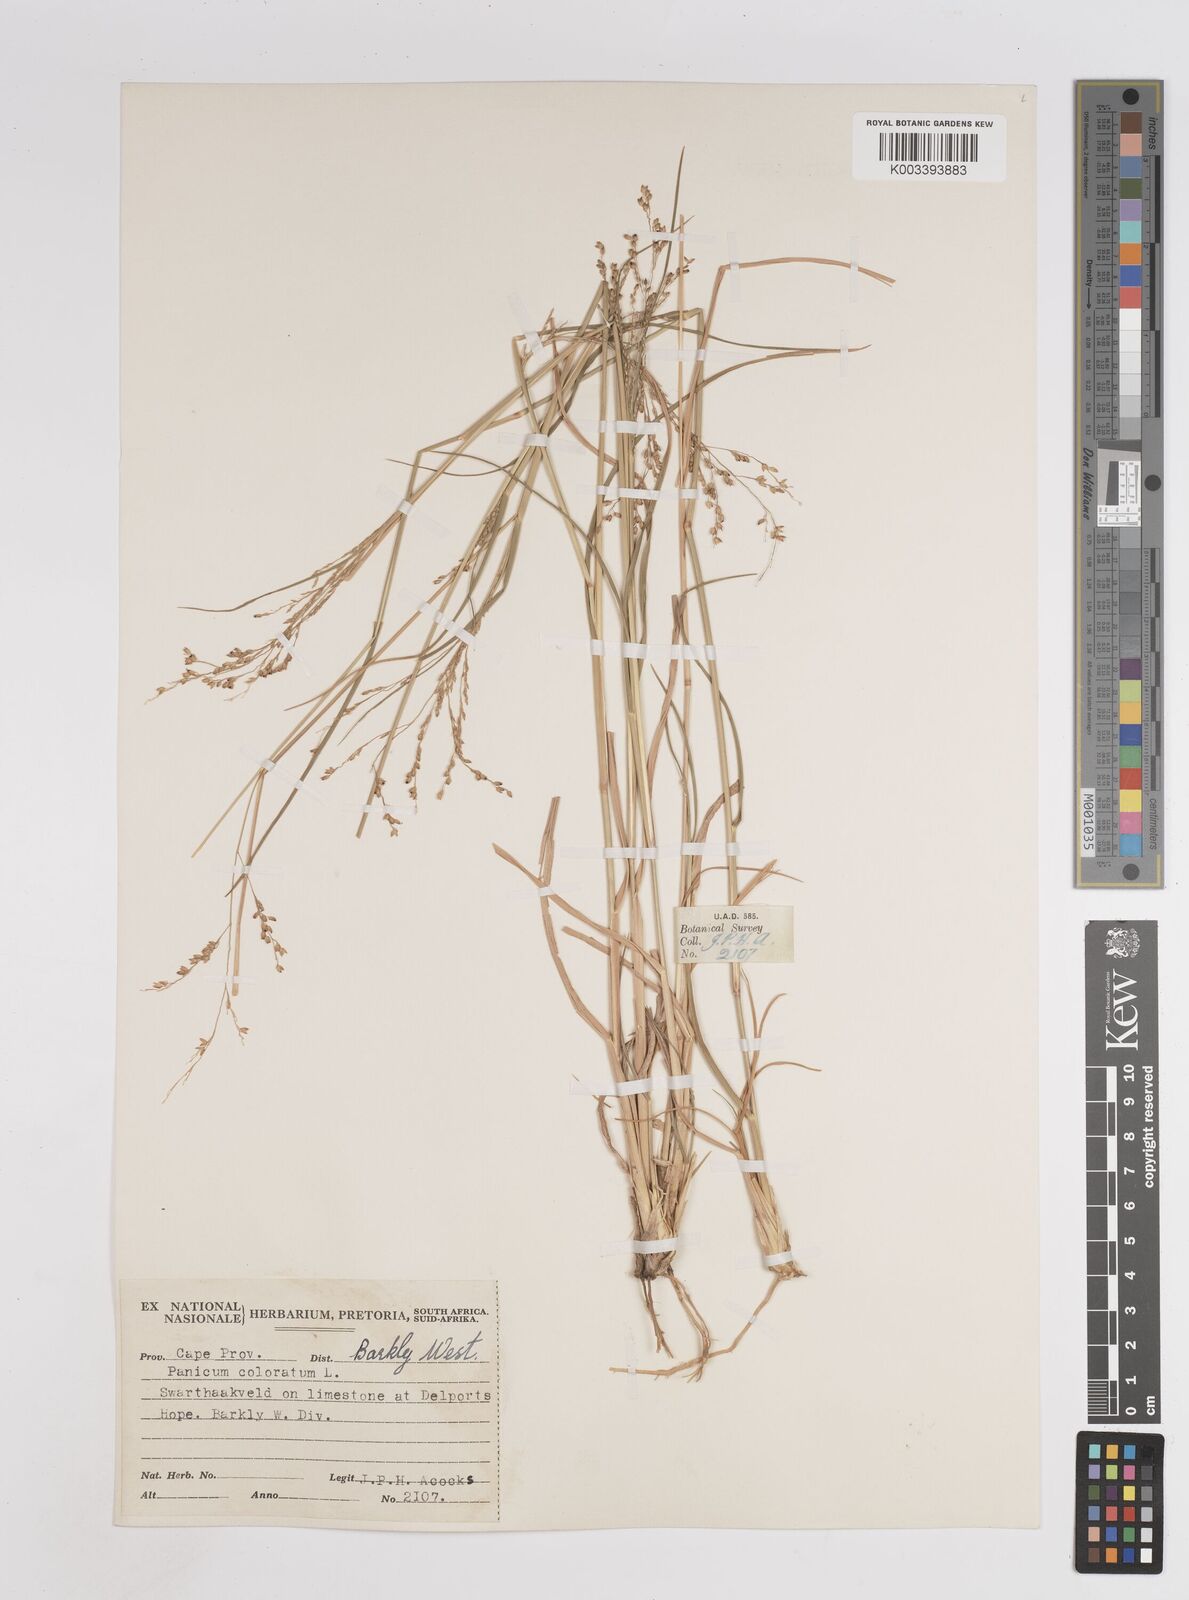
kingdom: Plantae
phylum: Tracheophyta
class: Liliopsida
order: Poales
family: Poaceae
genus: Panicum
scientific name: Panicum
